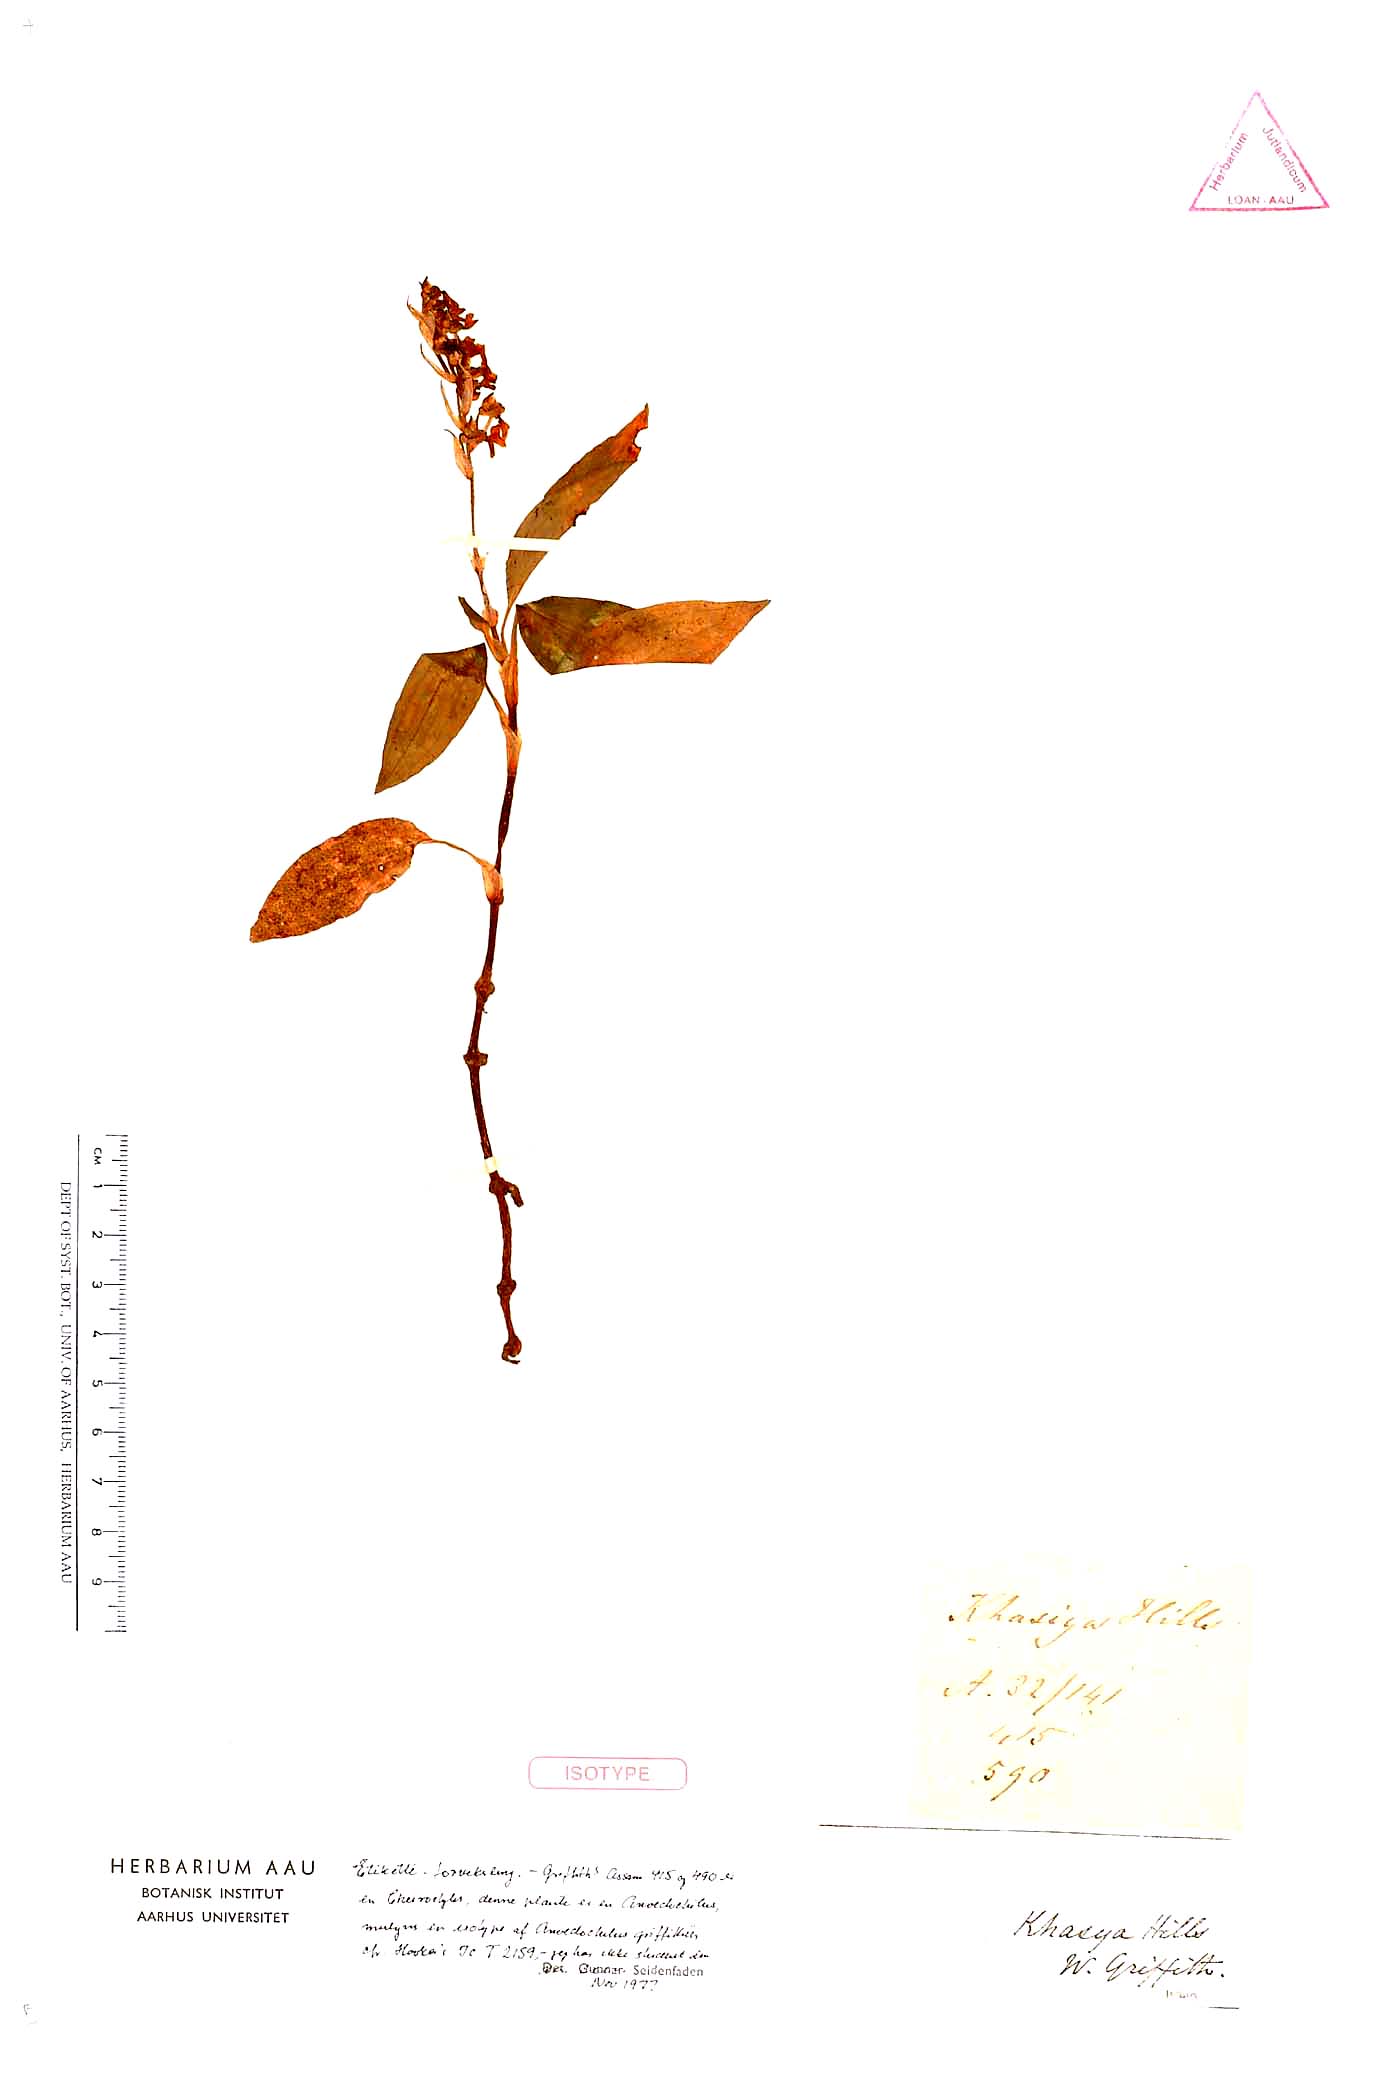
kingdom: Plantae
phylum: Tracheophyta
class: Liliopsida
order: Asparagales
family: Orchidaceae
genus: Anoectochilus
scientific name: Anoectochilus brevilabris
